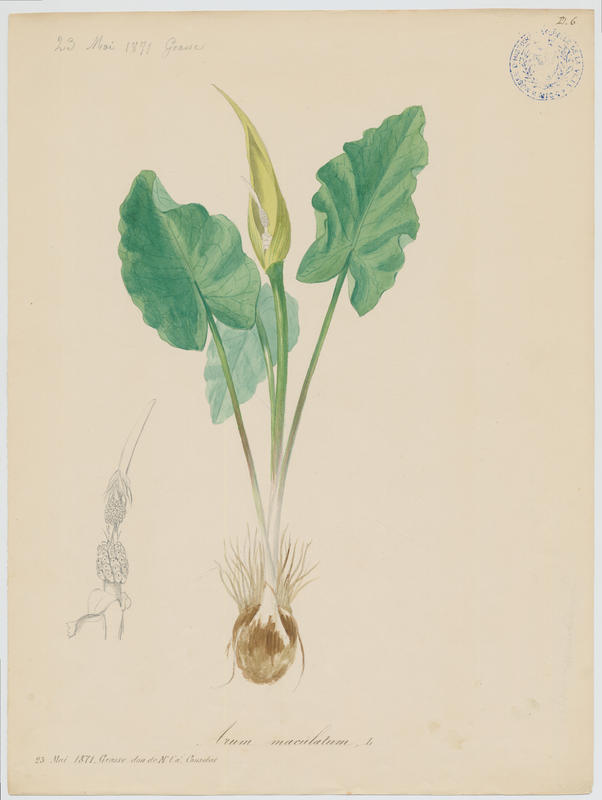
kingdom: Plantae
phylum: Tracheophyta
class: Liliopsida
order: Alismatales
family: Araceae
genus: Arum
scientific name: Arum maculatum
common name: Lords-and-ladies
